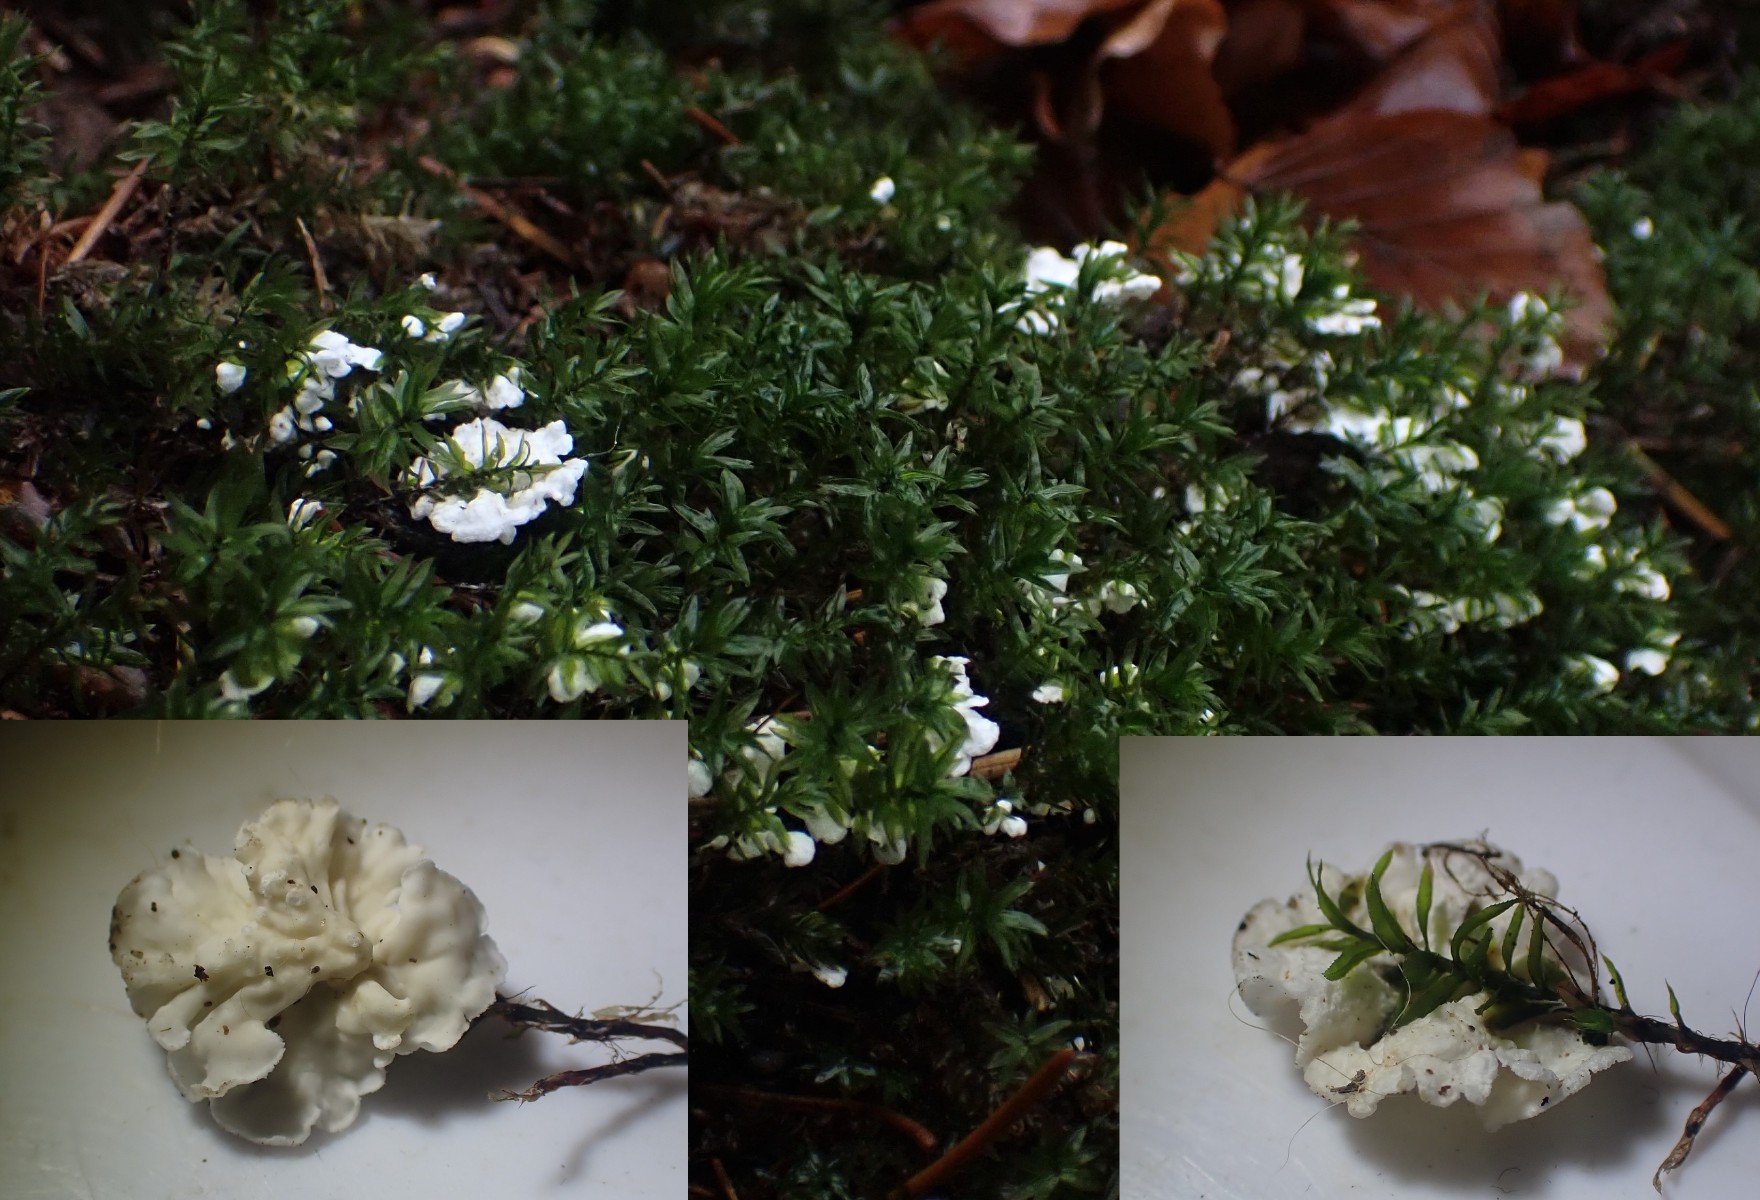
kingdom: Fungi
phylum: Basidiomycota
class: Agaricomycetes
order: Agaricales
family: Tricholomataceae
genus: Rimbachia
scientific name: Rimbachia arachnoidea
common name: Almindelig mosskål
